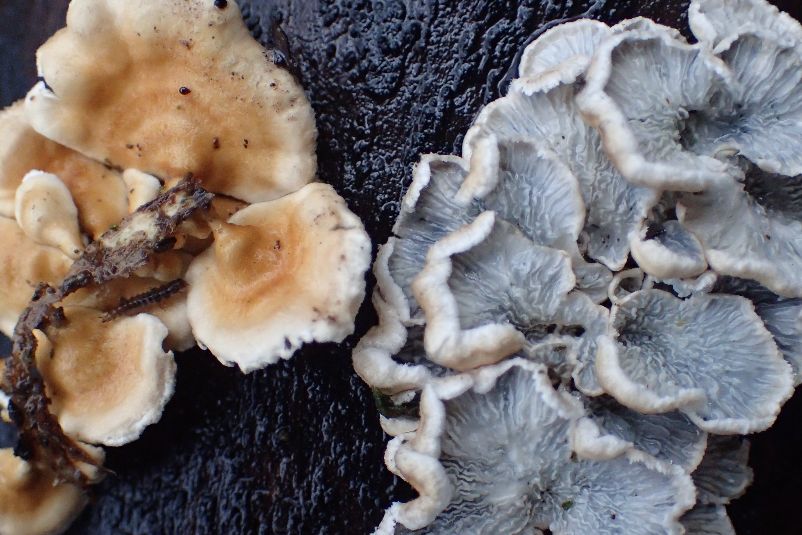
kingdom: Fungi
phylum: Basidiomycota
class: Agaricomycetes
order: Amylocorticiales
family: Amylocorticiaceae
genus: Plicaturopsis
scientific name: Plicaturopsis crispa
